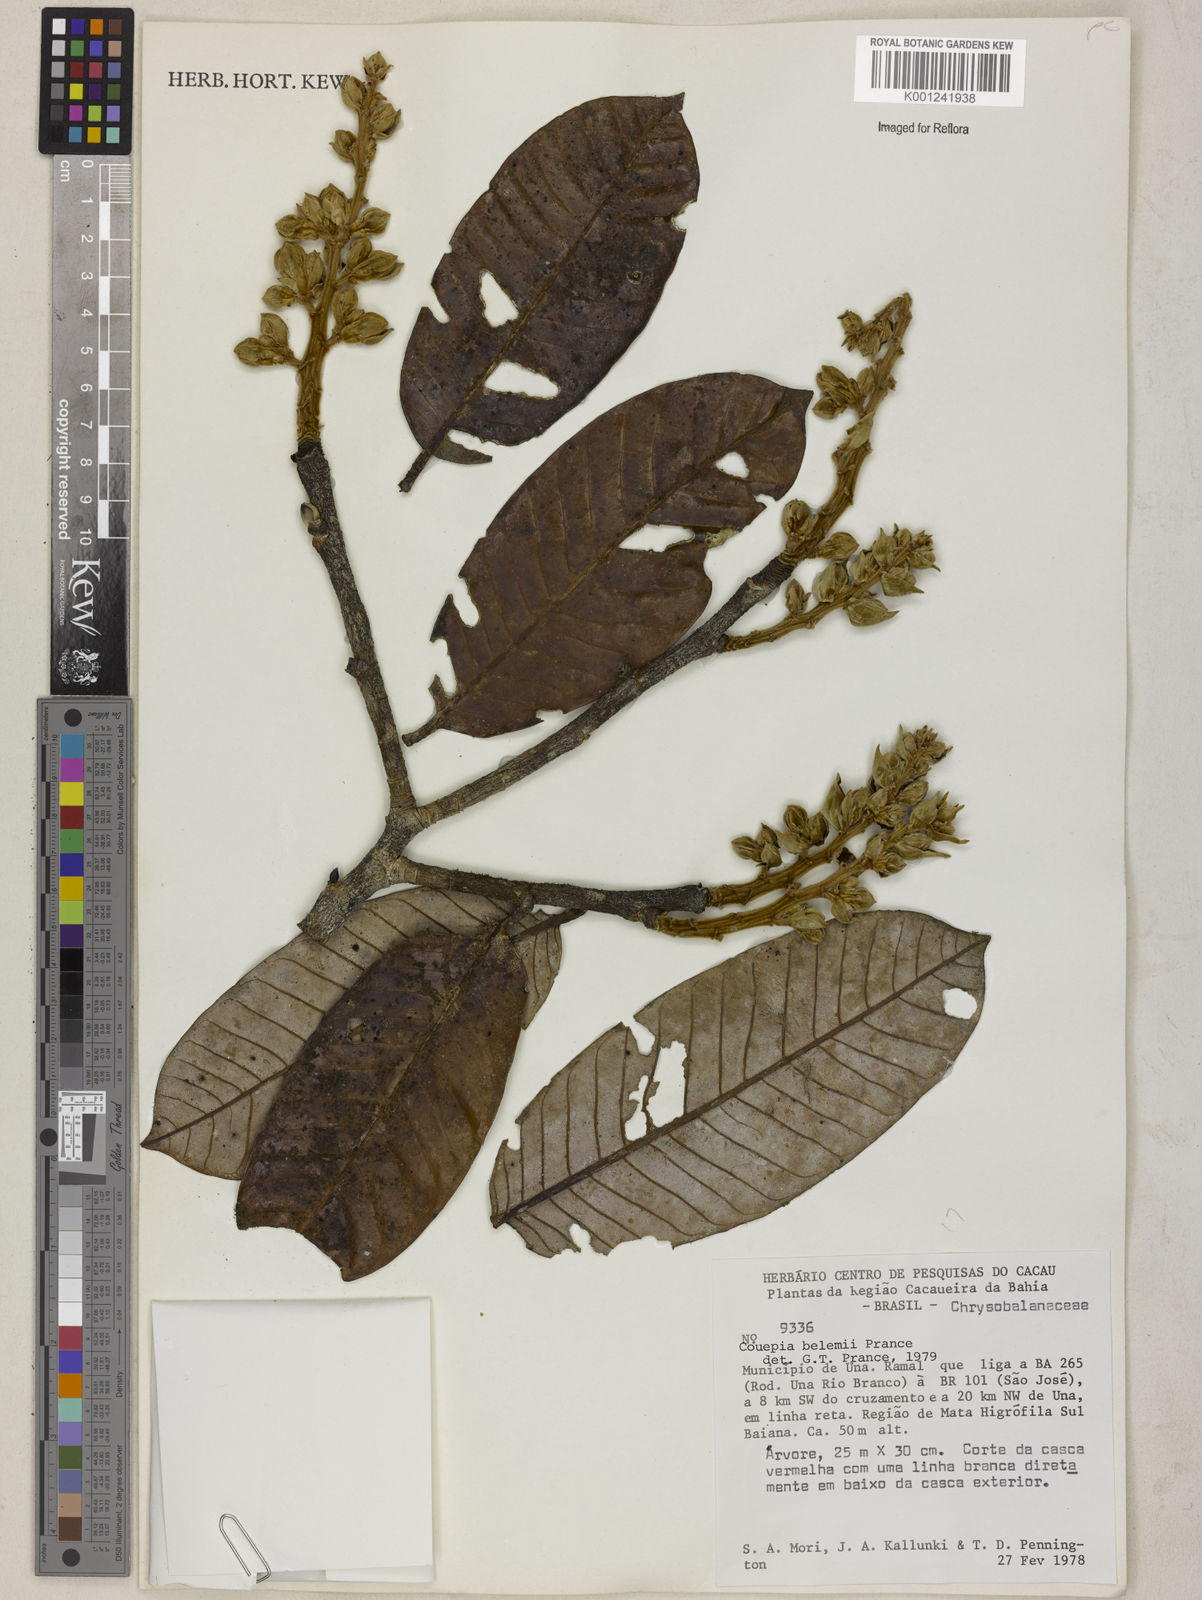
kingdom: Plantae
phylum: Tracheophyta
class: Magnoliopsida
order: Malpighiales
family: Chrysobalanaceae
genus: Couepia
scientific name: Couepia belemii
